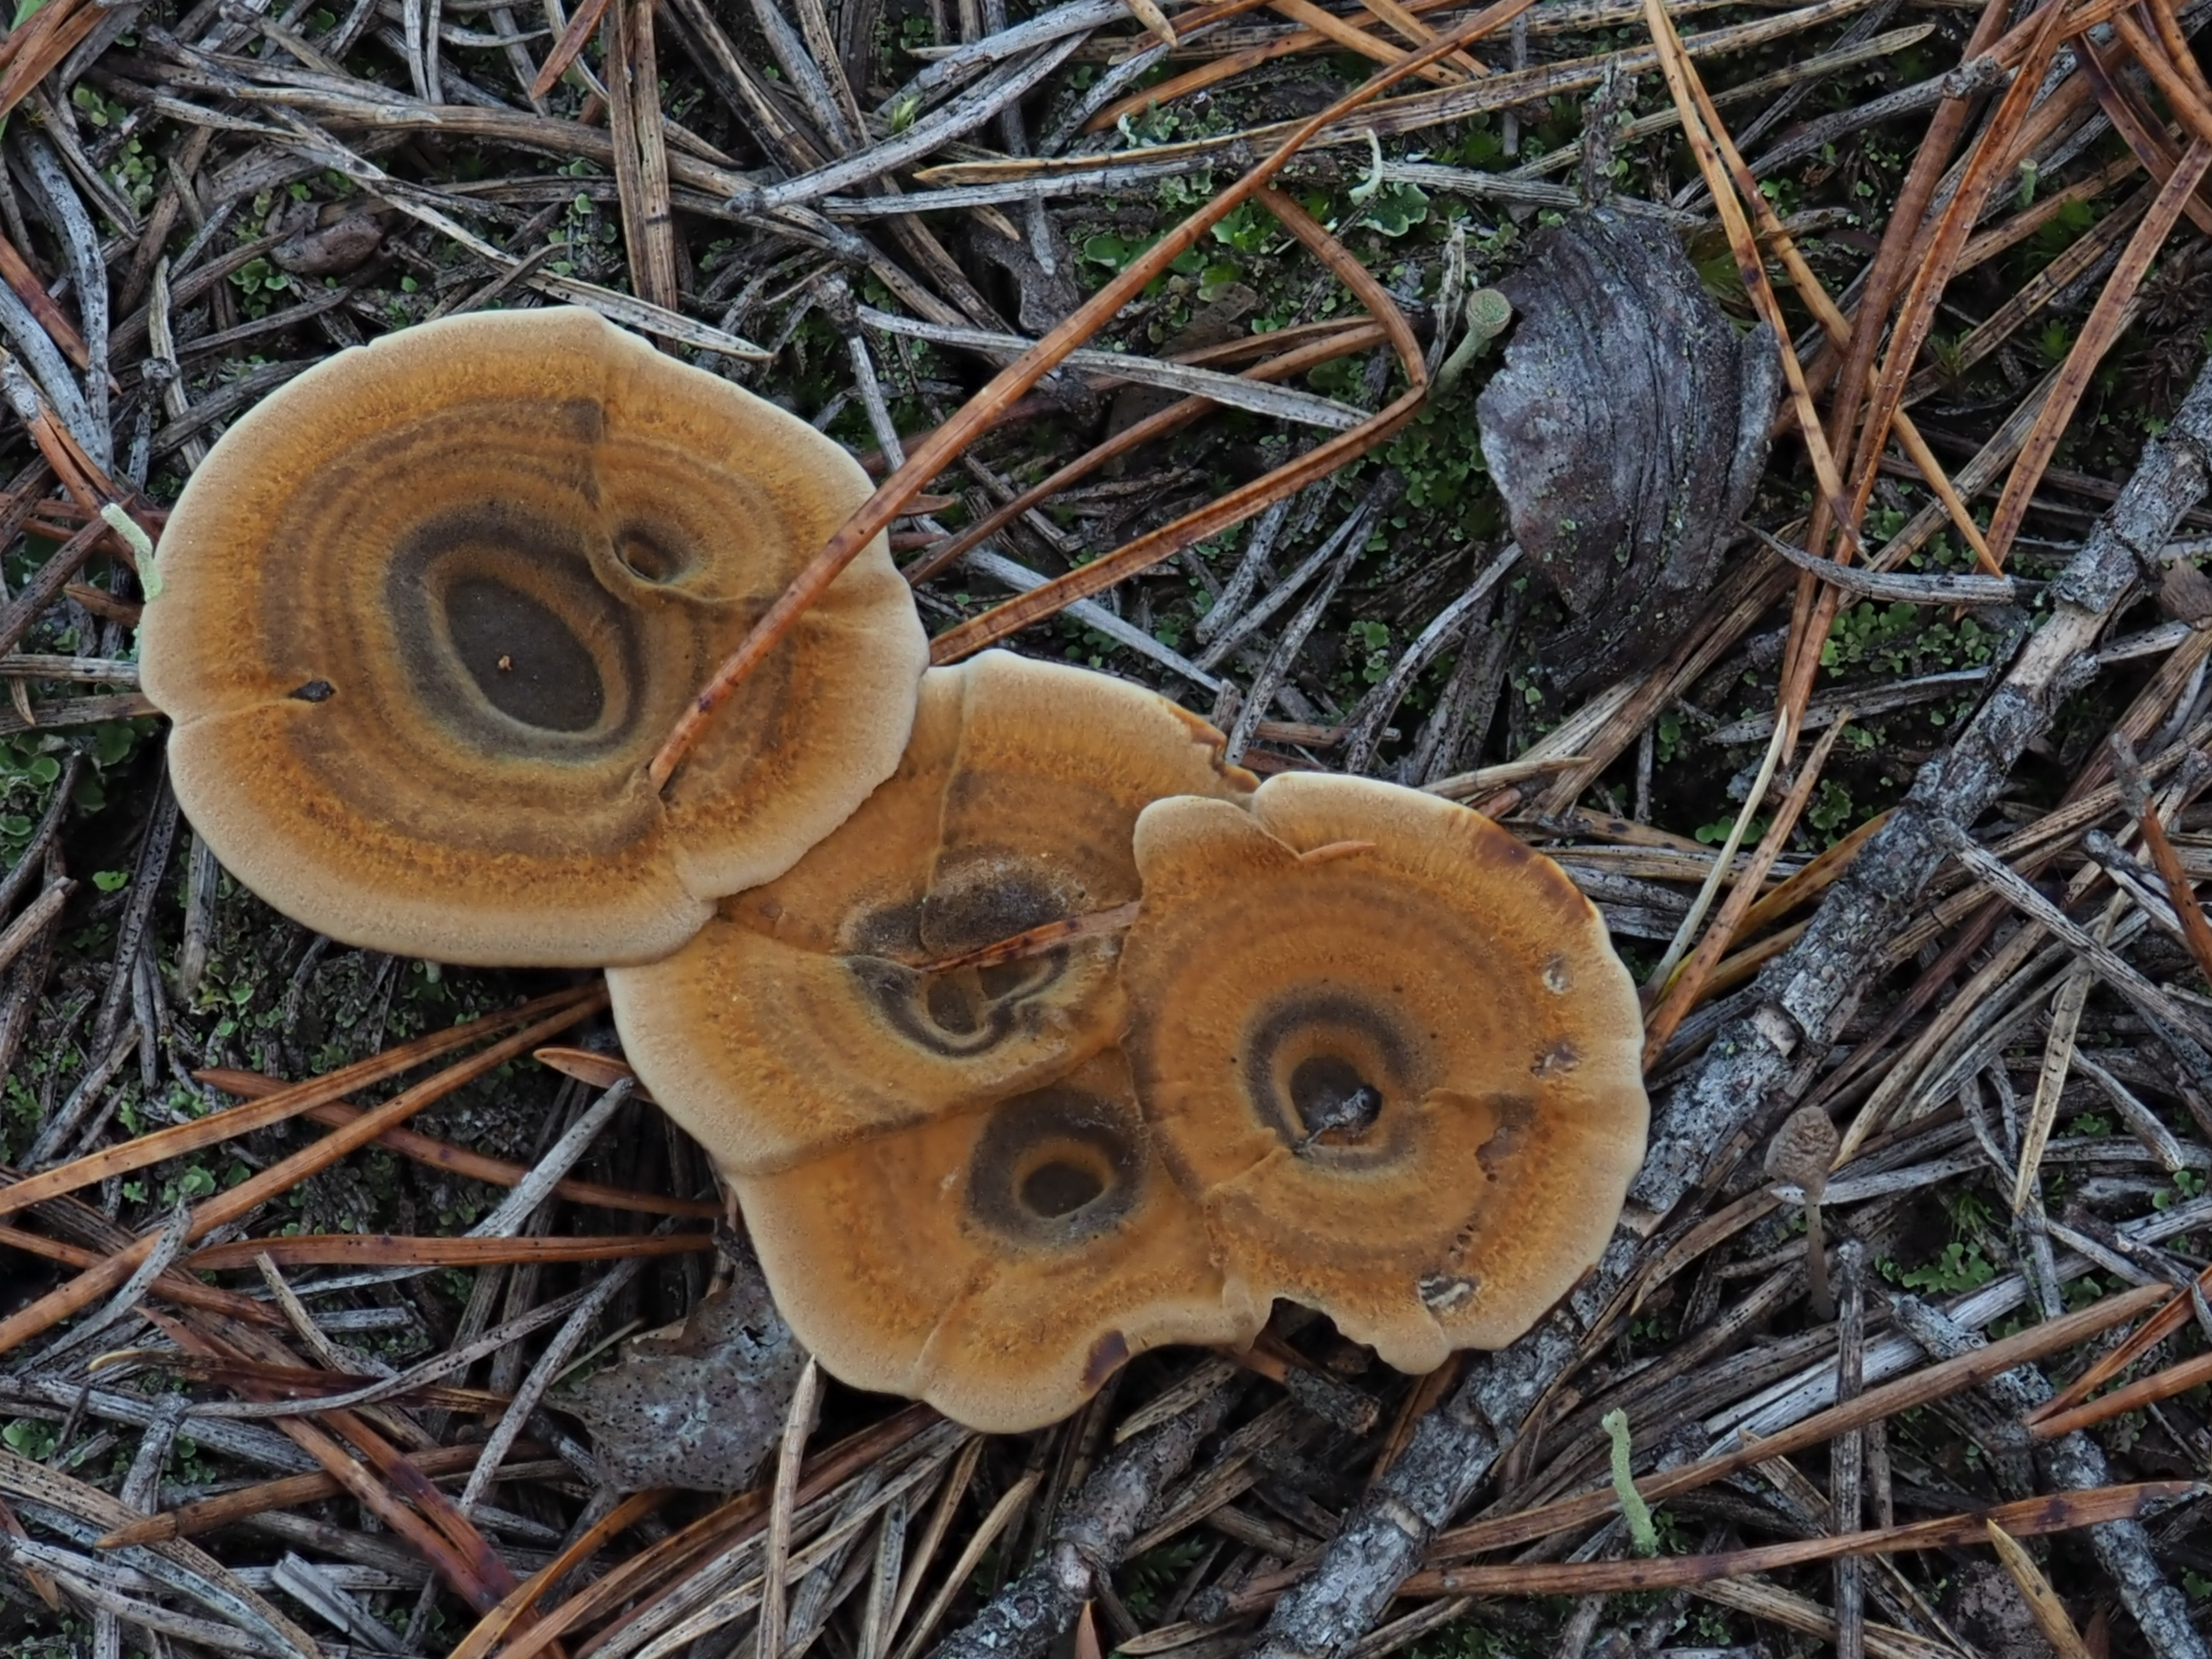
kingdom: Fungi
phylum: Basidiomycota
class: Agaricomycetes
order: Hymenochaetales
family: Hymenochaetaceae
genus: Coltricia
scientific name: Coltricia perennis
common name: Tiger's eye
